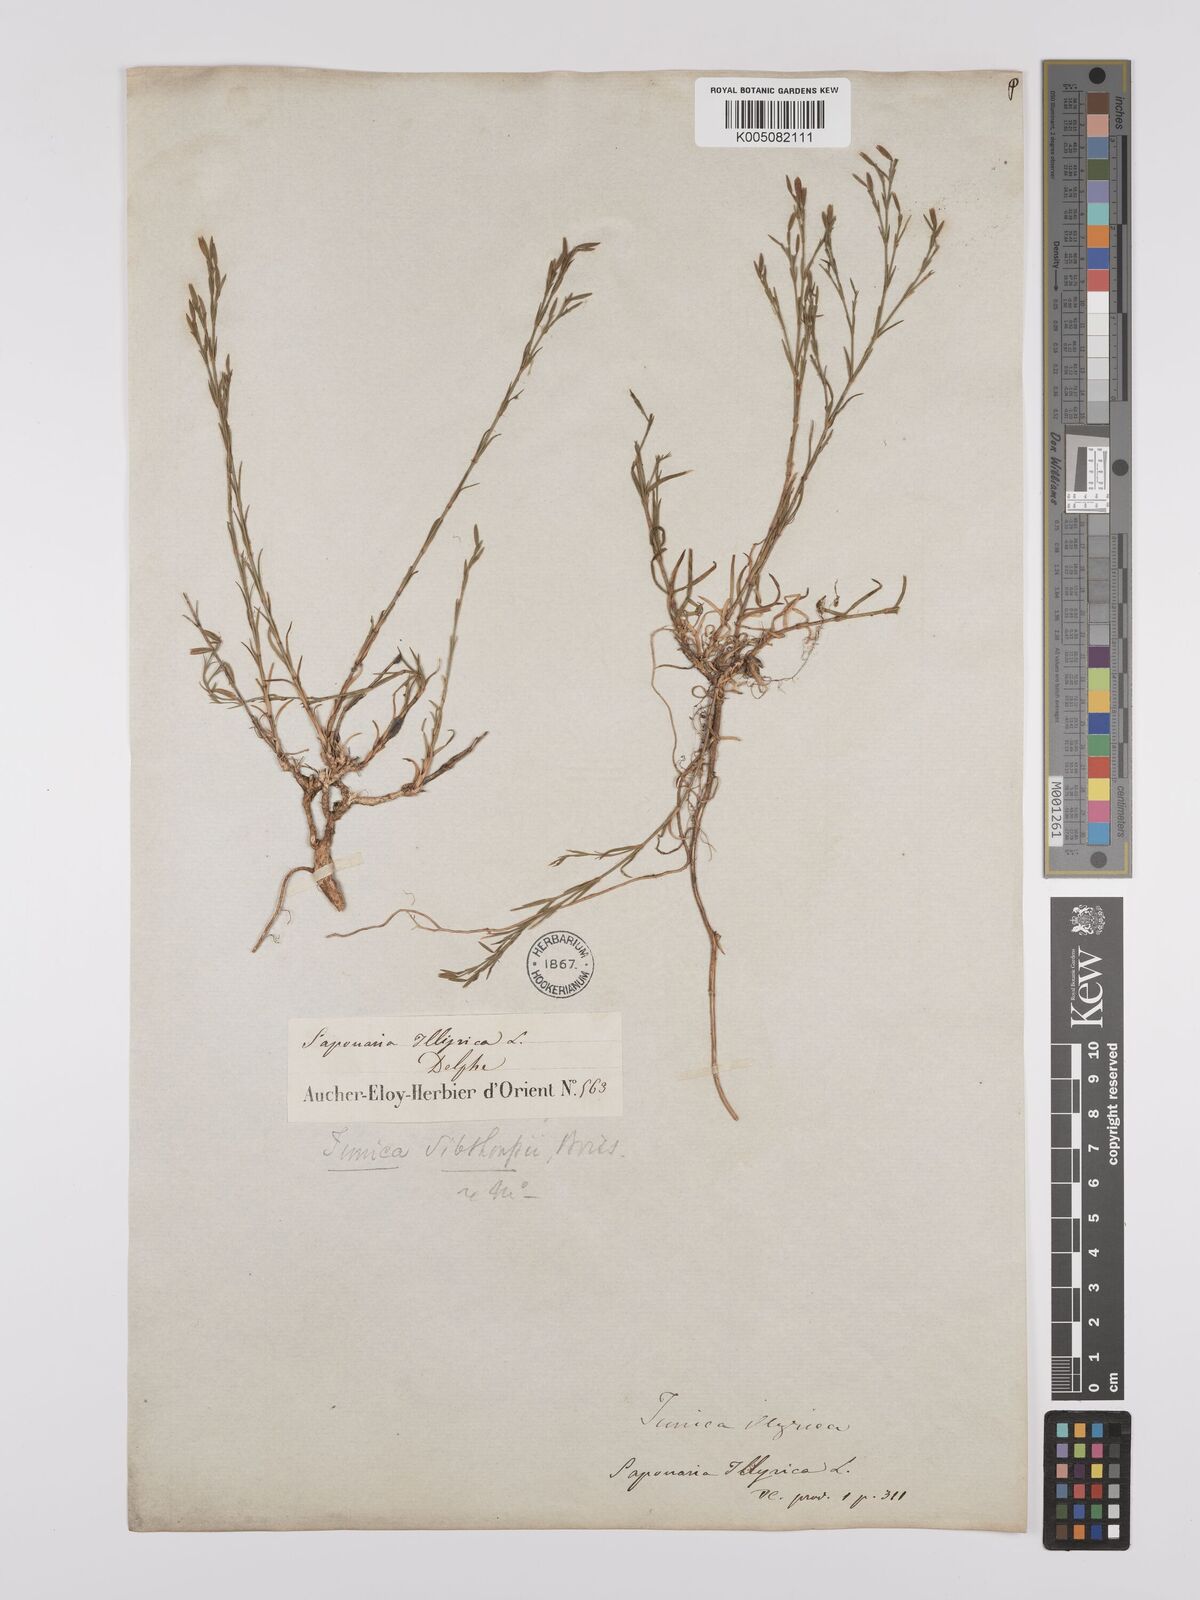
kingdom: Plantae
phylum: Tracheophyta
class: Magnoliopsida
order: Caryophyllales
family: Caryophyllaceae
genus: Dianthus
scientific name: Dianthus illyricus
